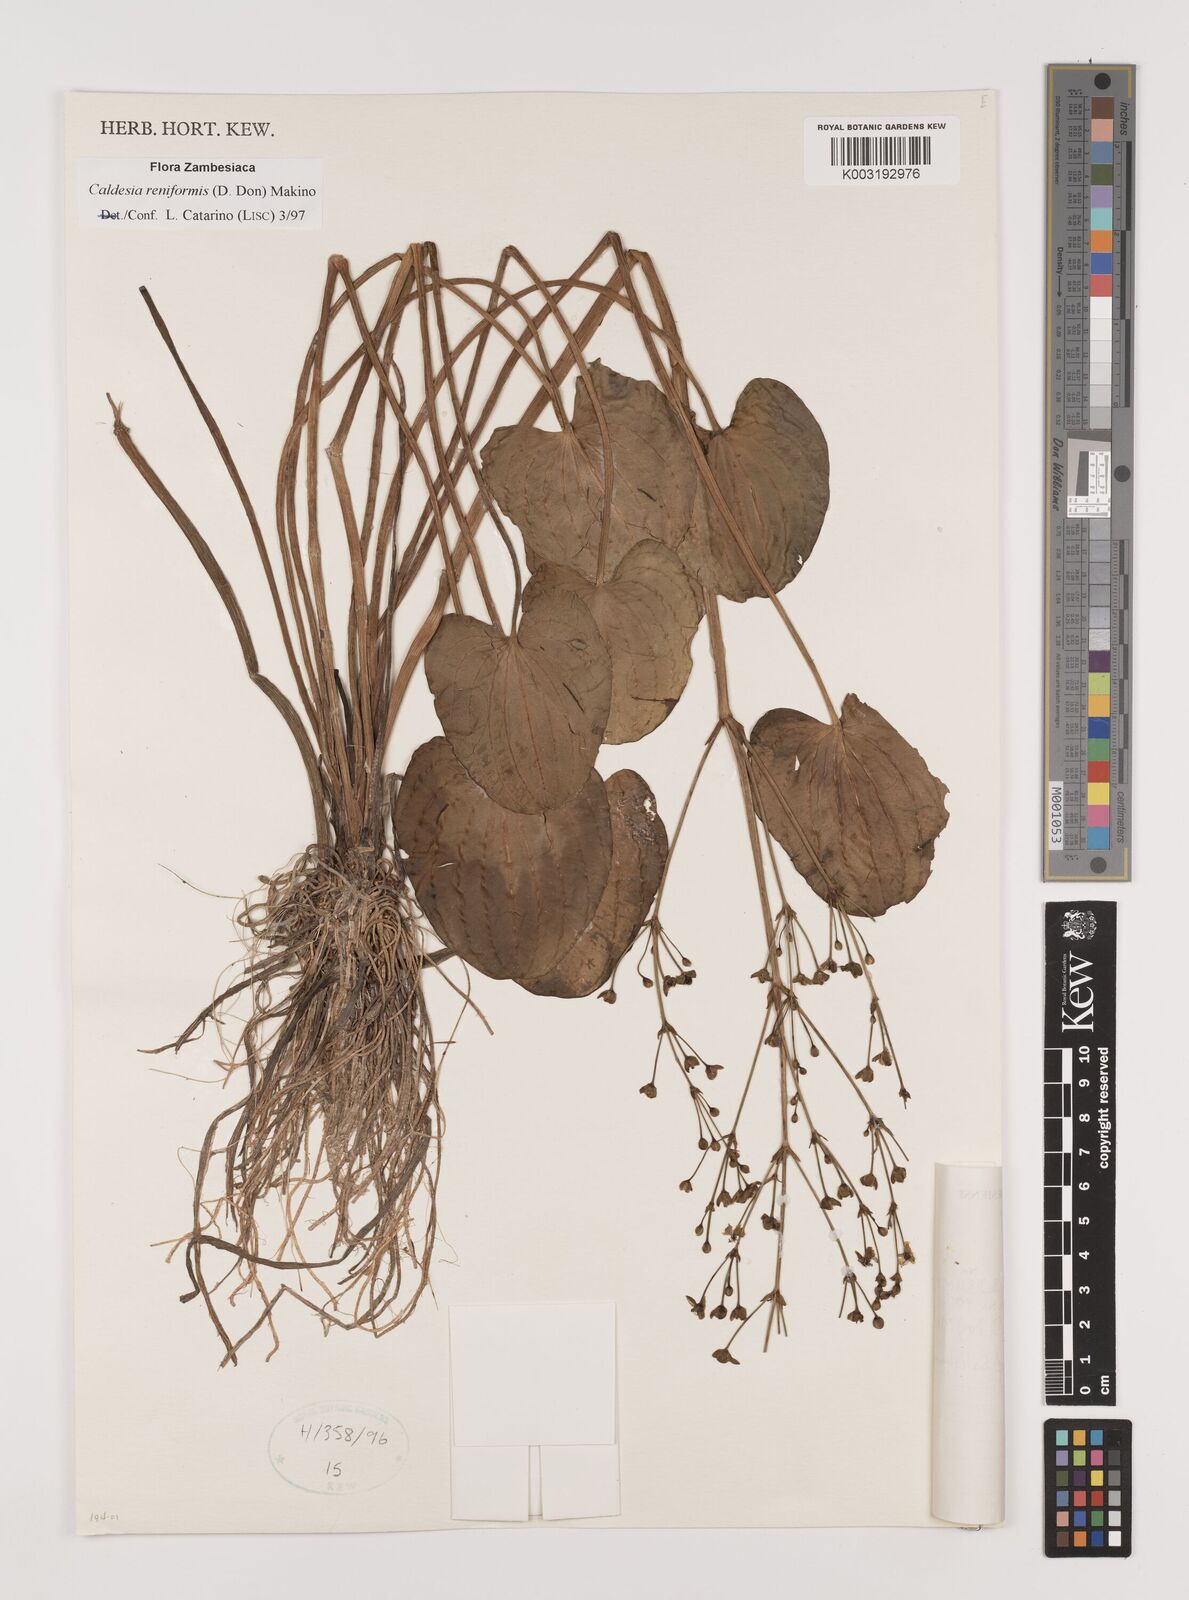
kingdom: Plantae
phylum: Tracheophyta
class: Liliopsida
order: Alismatales
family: Alismataceae
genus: Caldesia
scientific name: Caldesia parnassifolia
